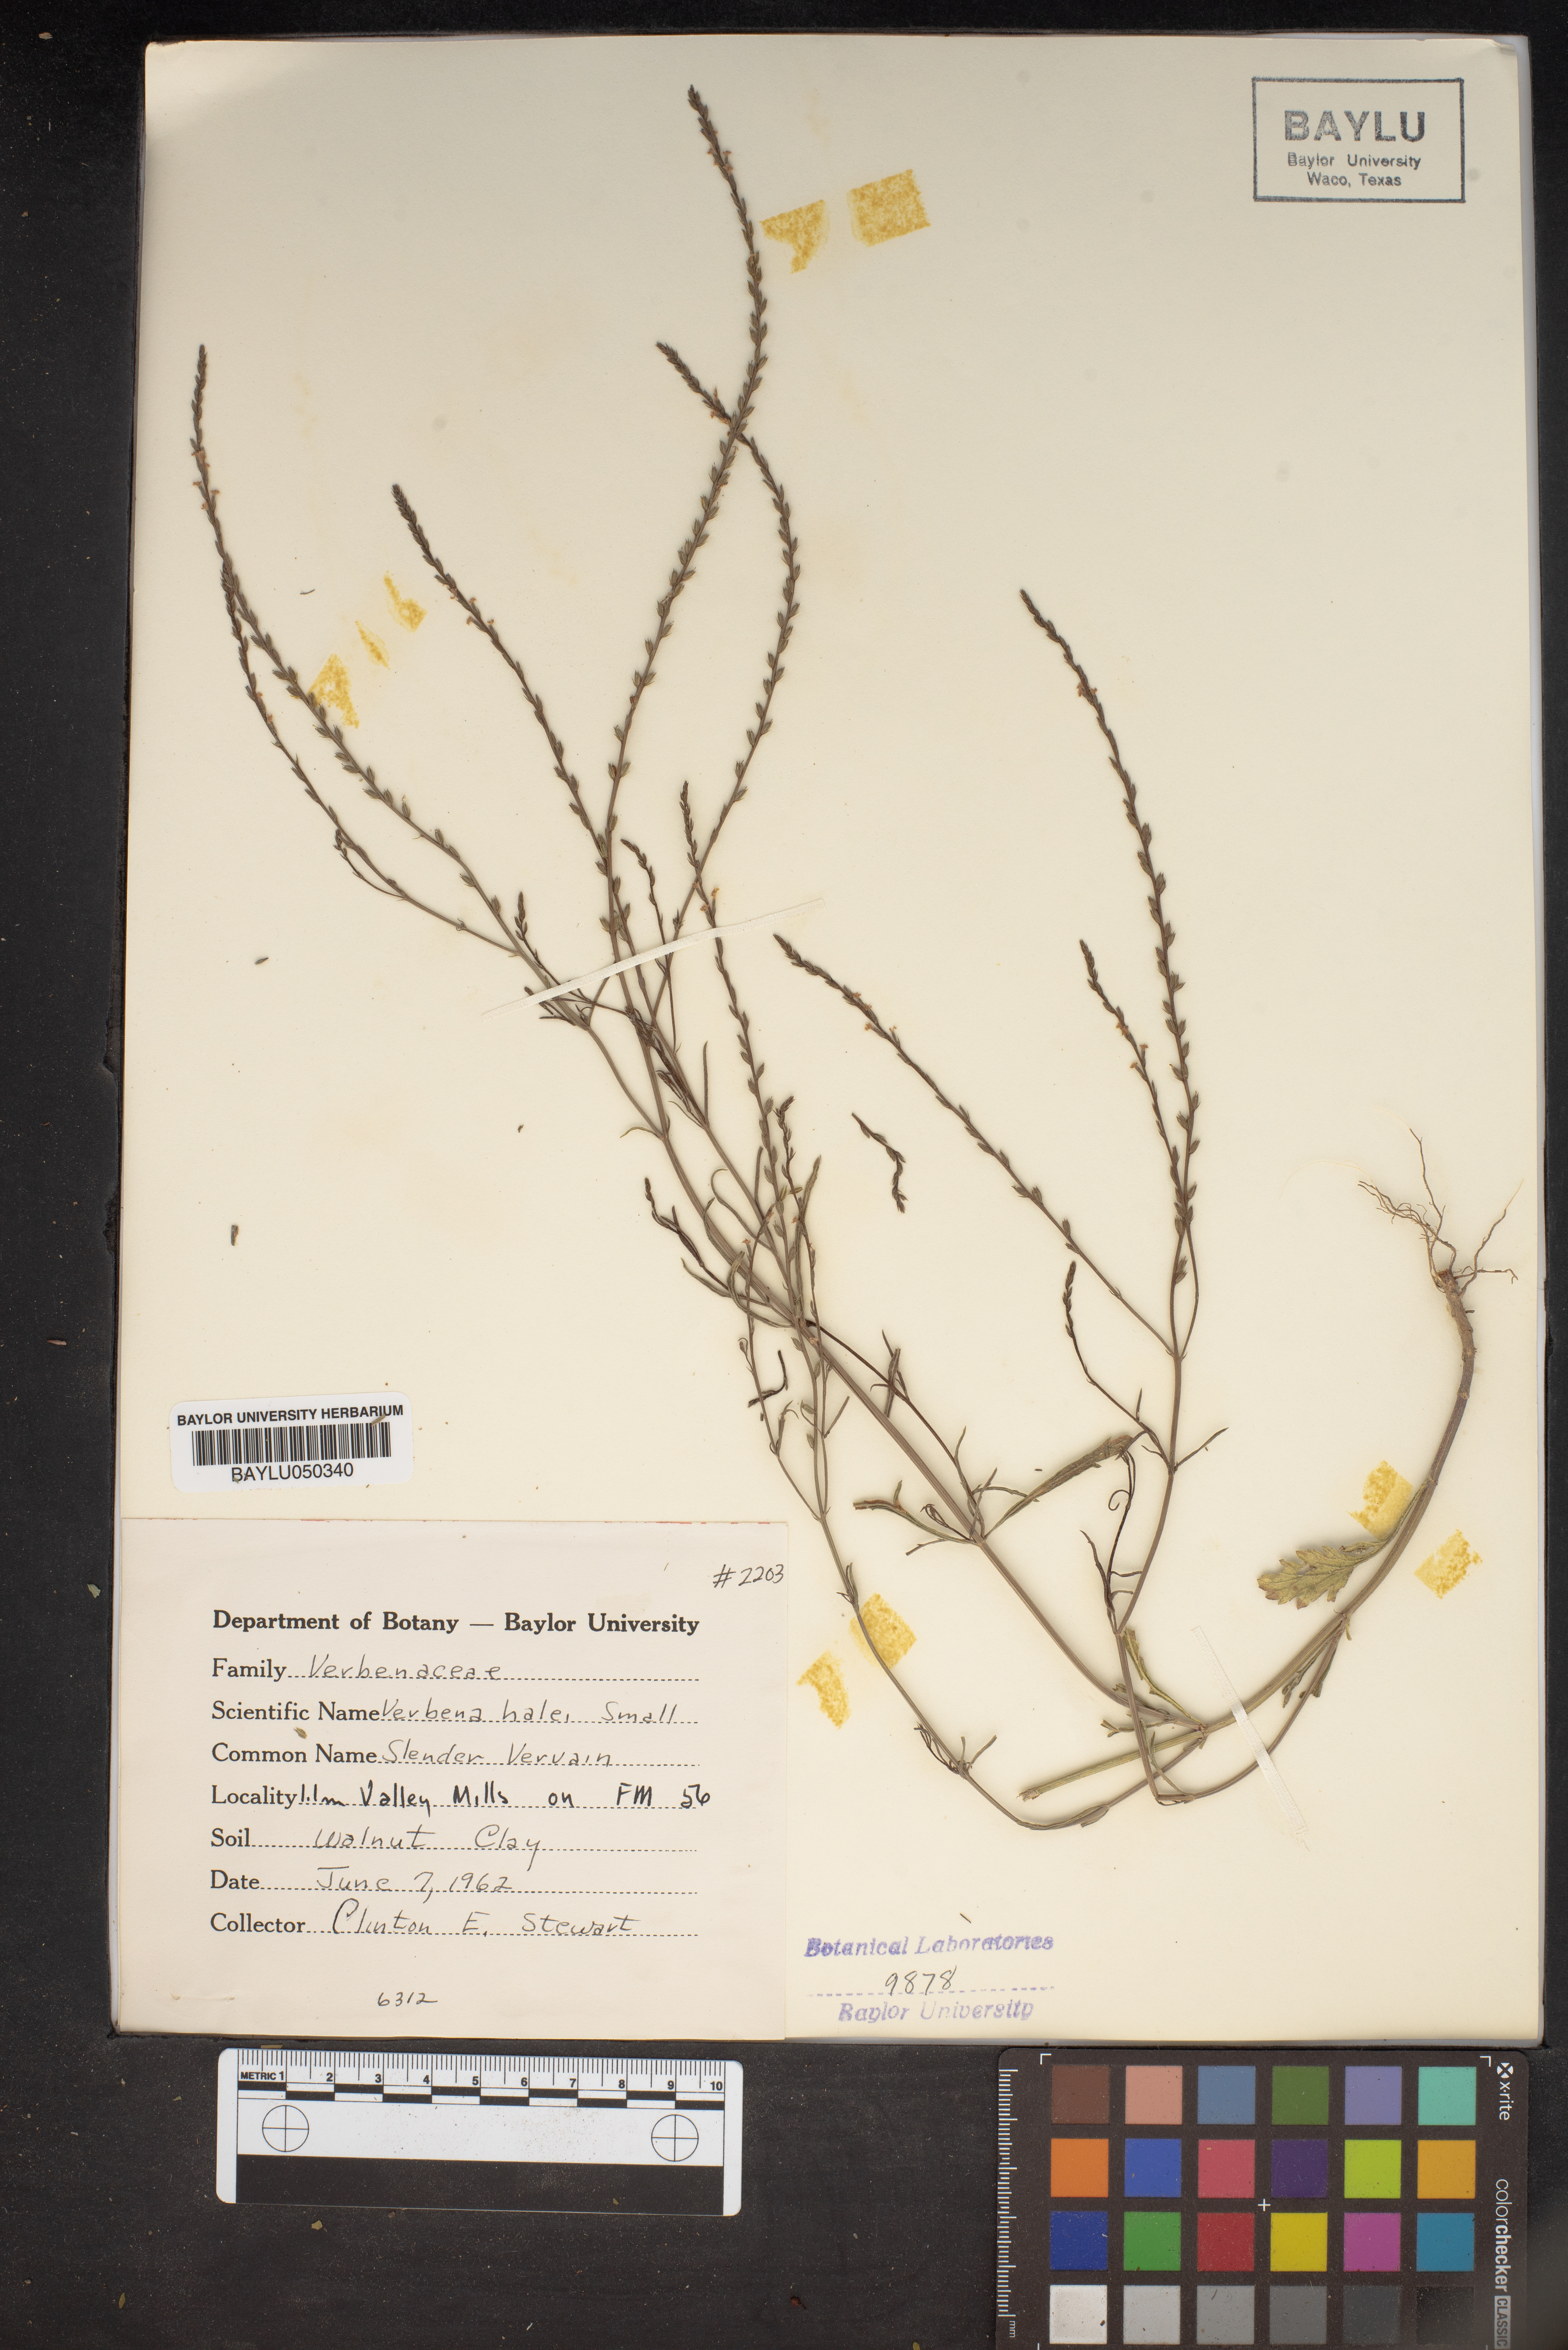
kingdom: Plantae
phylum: Tracheophyta
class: Magnoliopsida
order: Lamiales
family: Verbenaceae
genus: Verbena
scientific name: Verbena halei
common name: Texas vervain
